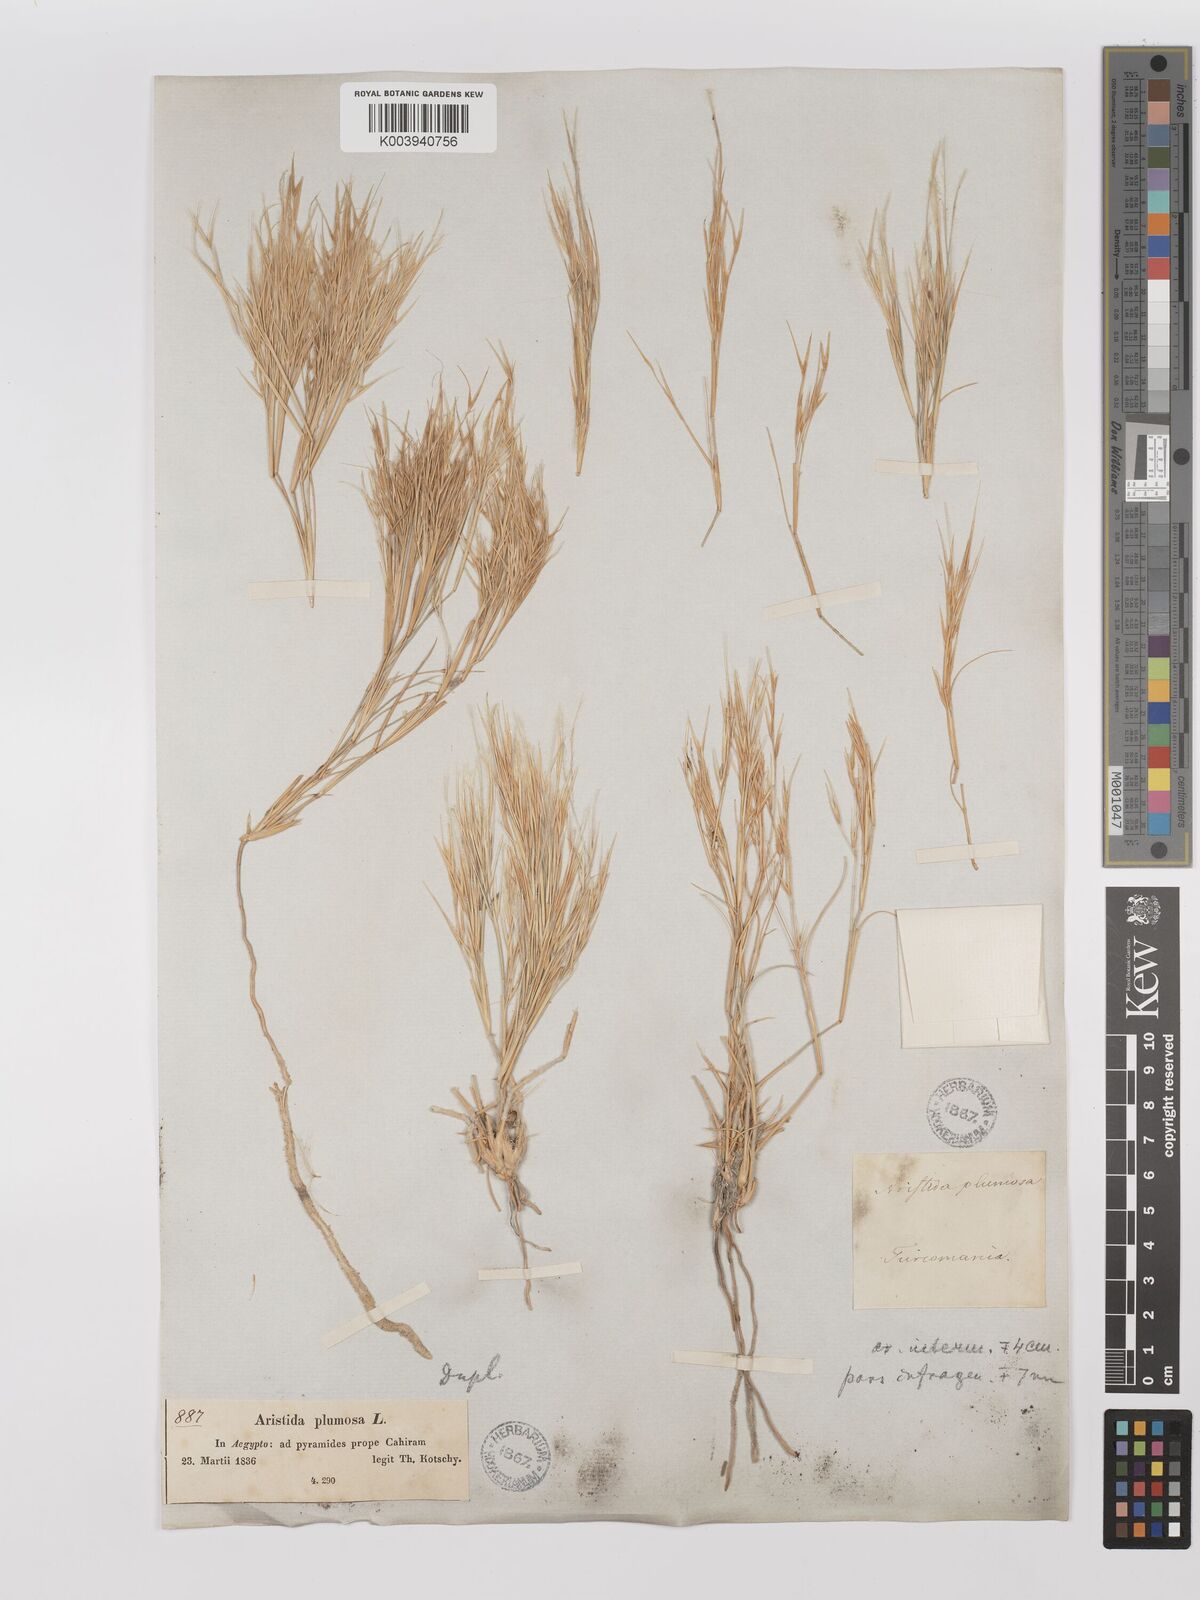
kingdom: Plantae
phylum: Tracheophyta
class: Liliopsida
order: Poales
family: Poaceae
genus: Stipagrostis
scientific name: Stipagrostis plumosa
